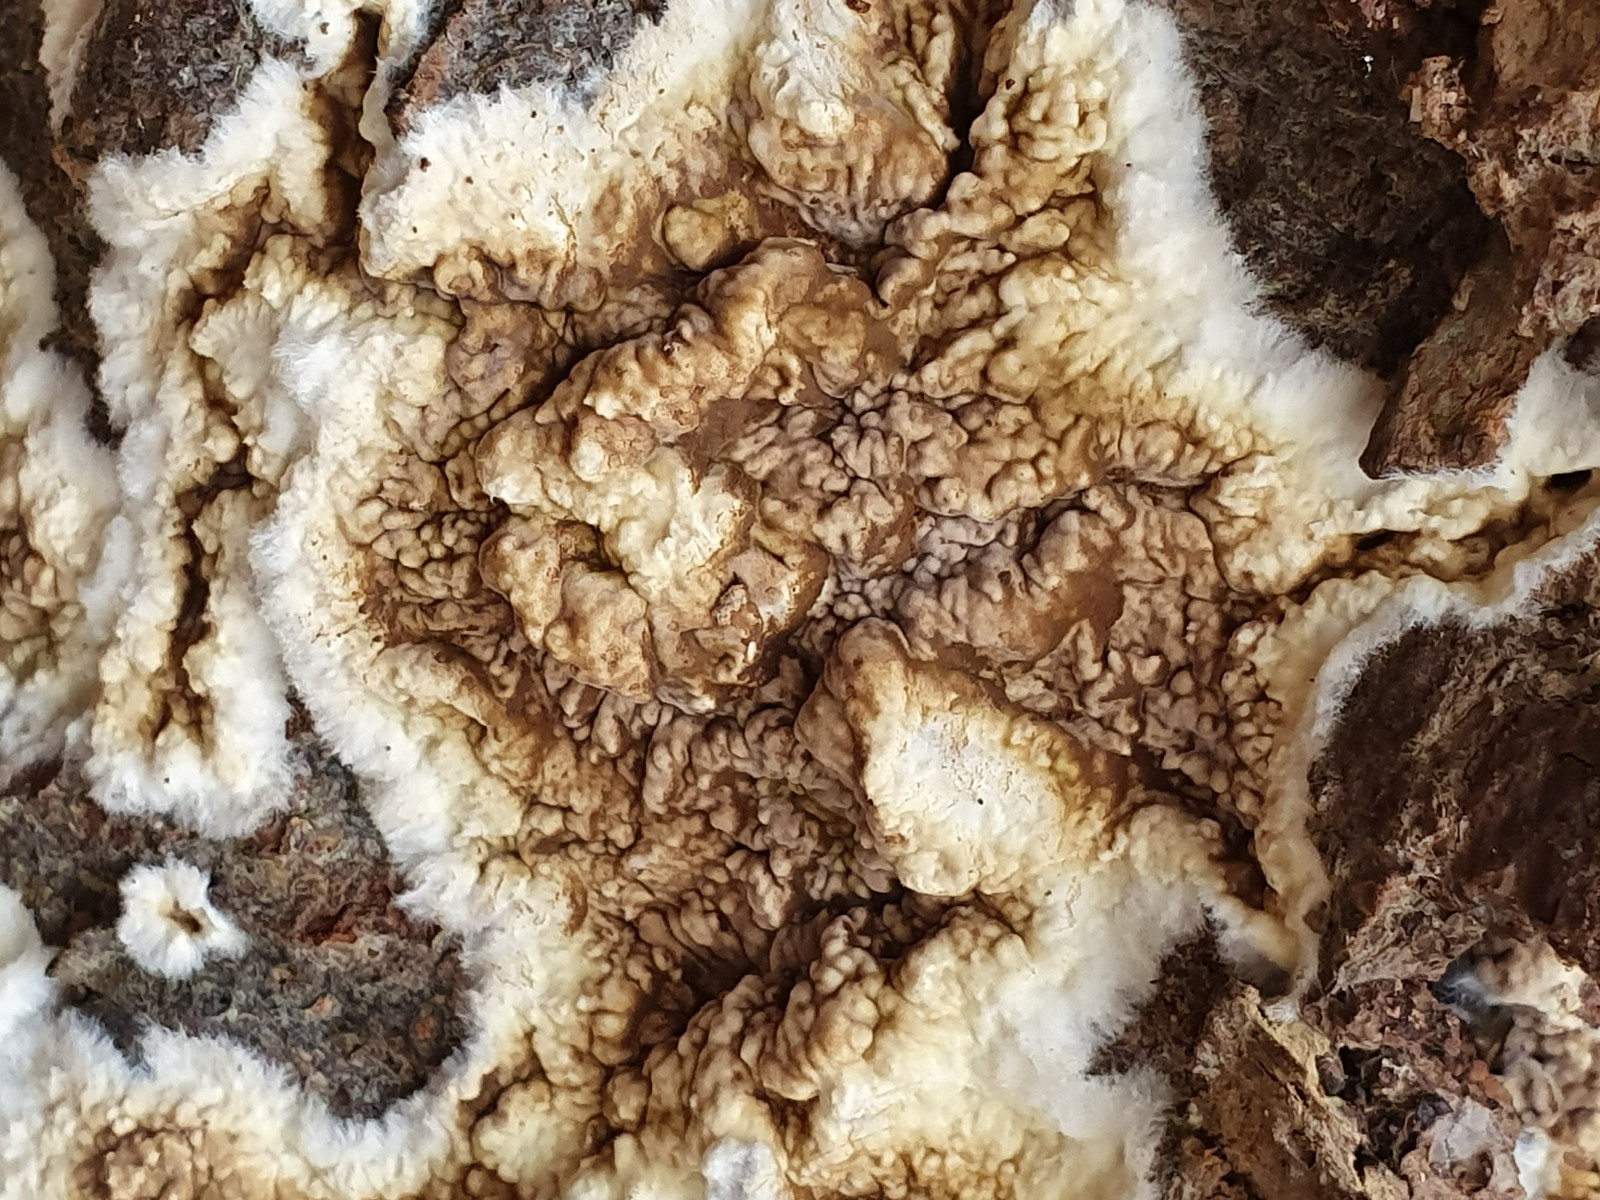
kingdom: Fungi
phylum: Basidiomycota
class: Agaricomycetes
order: Boletales
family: Coniophoraceae
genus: Coniophora
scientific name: Coniophora puteana
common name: gul tømmersvamp
